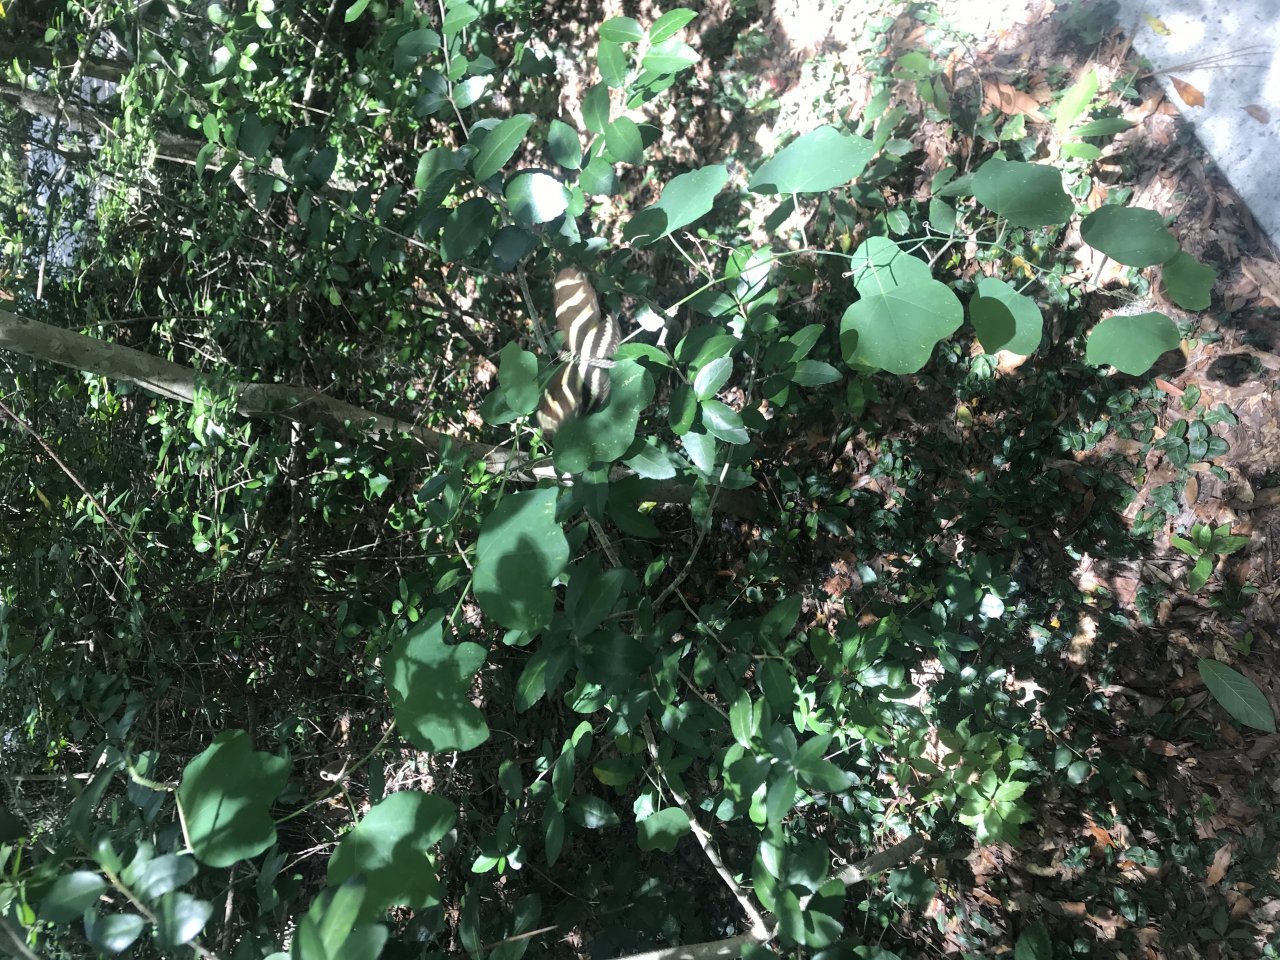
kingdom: Animalia
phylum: Arthropoda
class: Insecta
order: Lepidoptera
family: Nymphalidae
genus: Heliconius
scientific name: Heliconius charithonia
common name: Zebra Longwing
